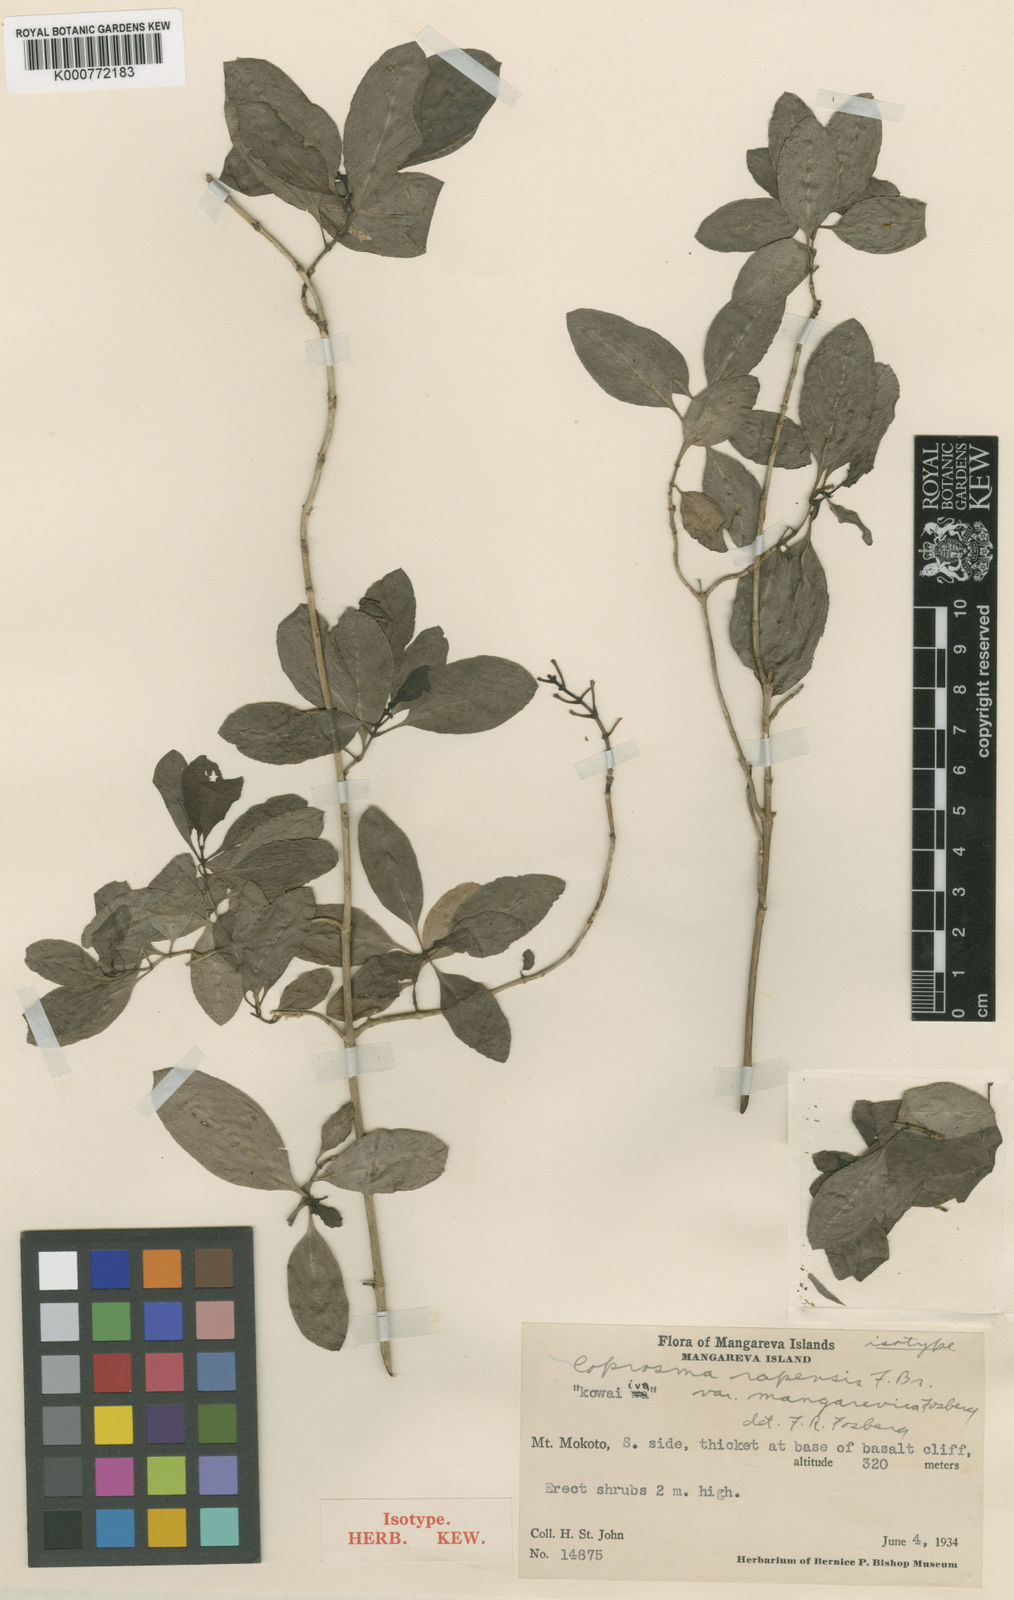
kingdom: Plantae
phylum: Tracheophyta
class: Magnoliopsida
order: Gentianales
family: Rubiaceae
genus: Coprosma
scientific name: Coprosma rapensis
